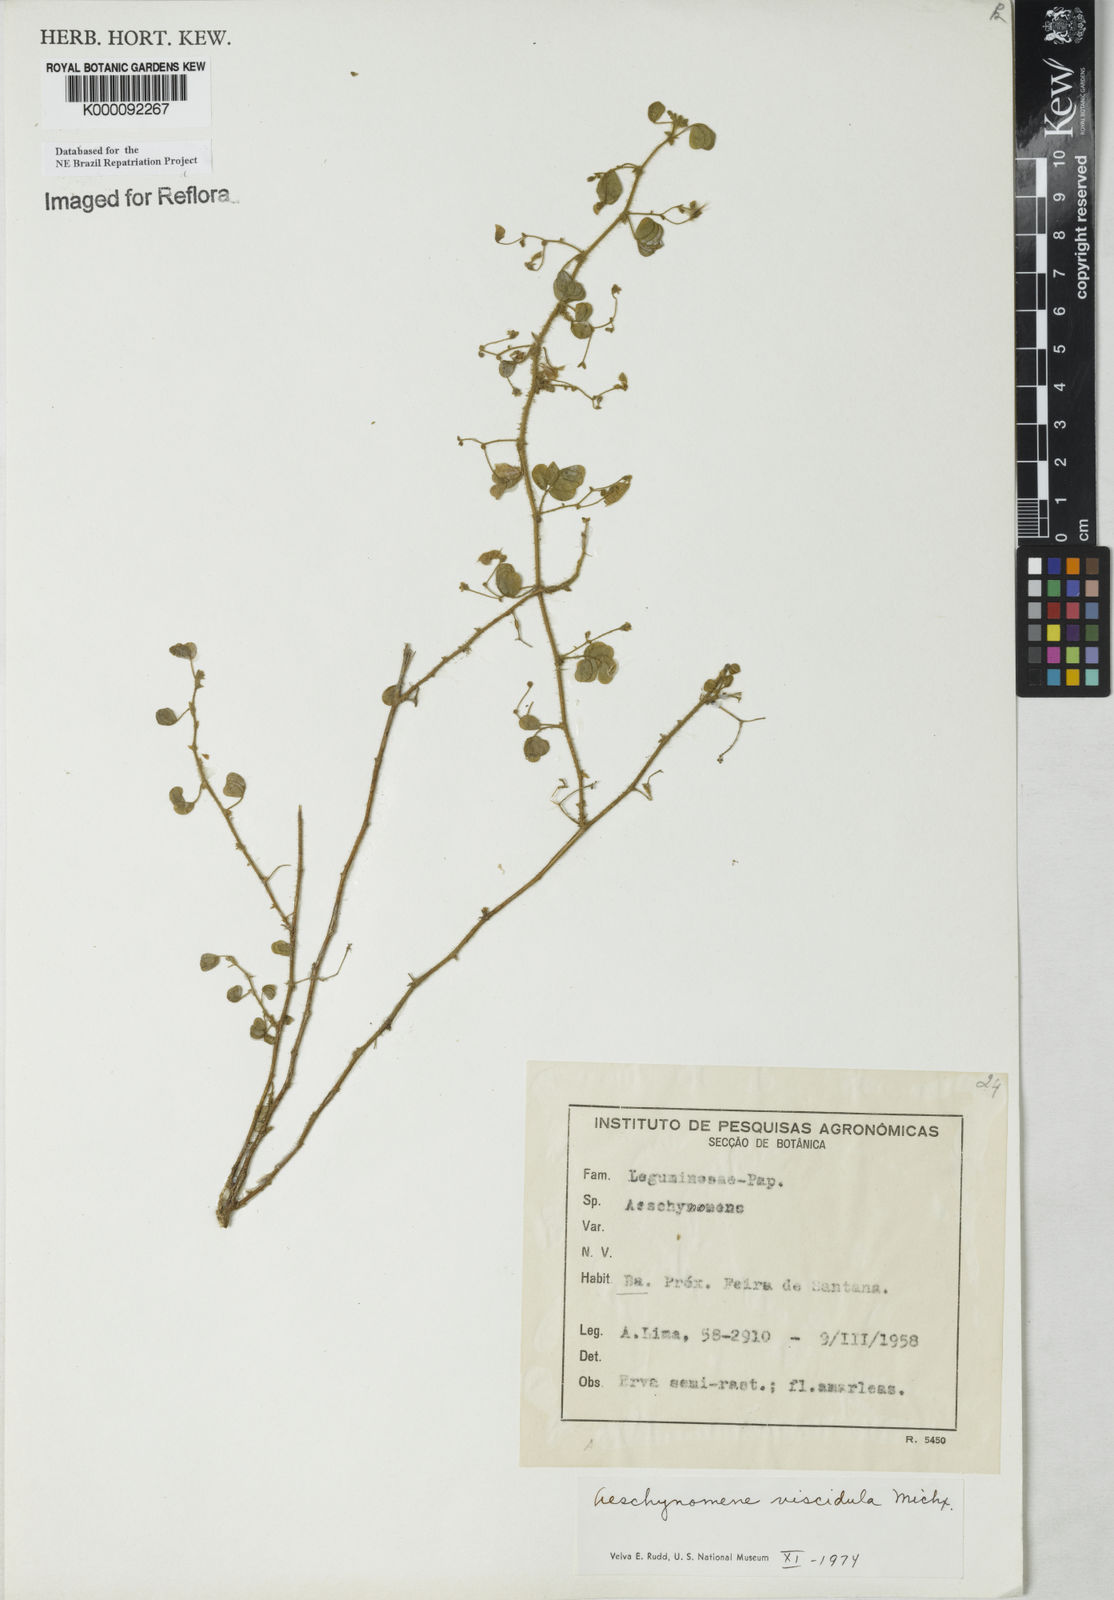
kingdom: Plantae
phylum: Tracheophyta
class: Magnoliopsida
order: Fabales
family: Fabaceae
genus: Ctenodon
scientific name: Ctenodon viscidulus
